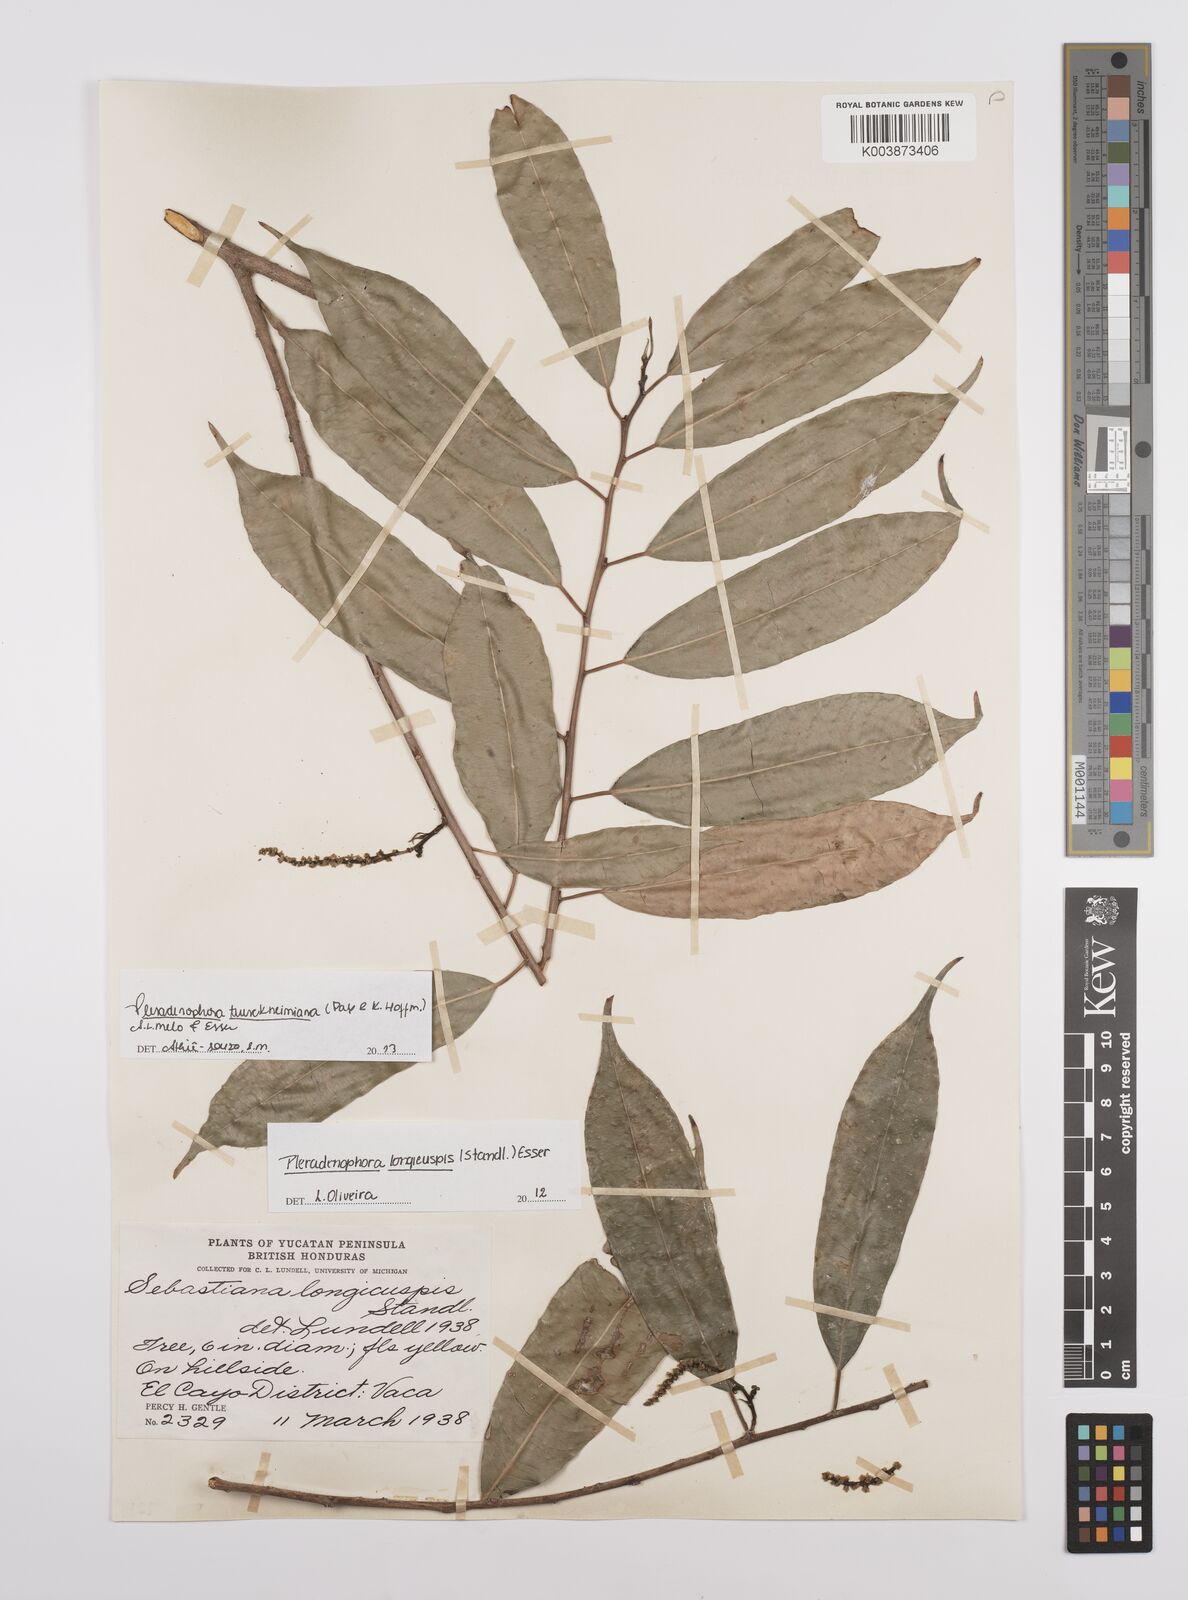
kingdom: Plantae
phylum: Tracheophyta
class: Magnoliopsida
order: Malpighiales
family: Euphorbiaceae
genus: Pleradenophora
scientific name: Pleradenophora tuerckheimiana
